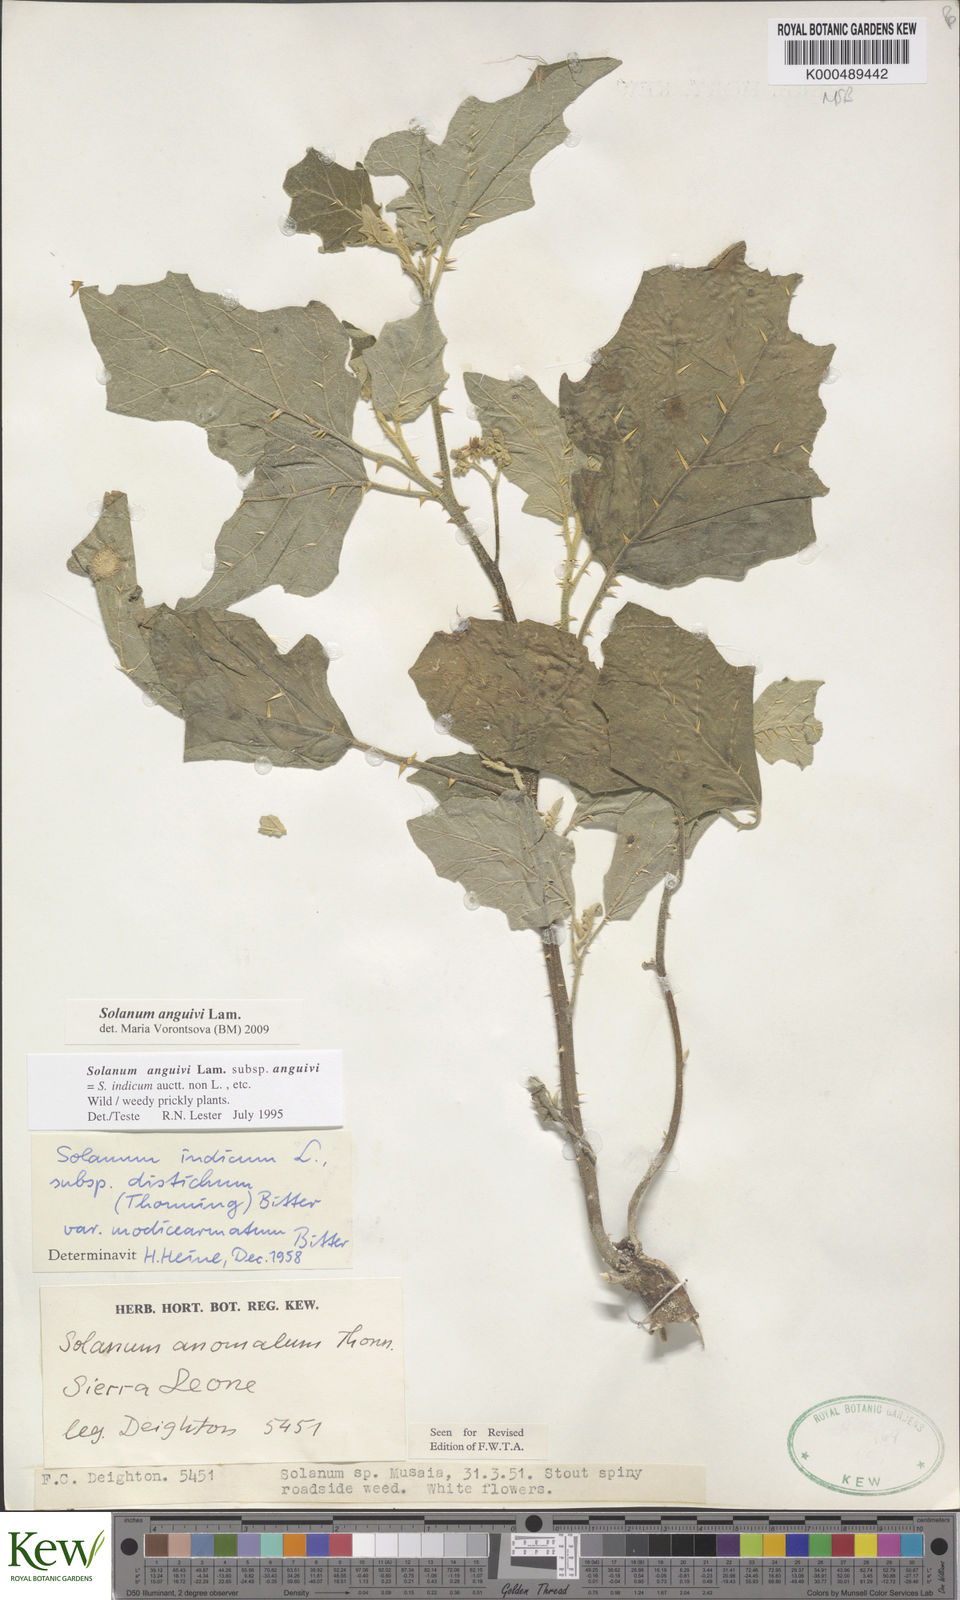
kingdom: Plantae
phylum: Tracheophyta
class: Magnoliopsida
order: Solanales
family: Solanaceae
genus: Solanum
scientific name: Solanum anguivi
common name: Forest bitterberry
